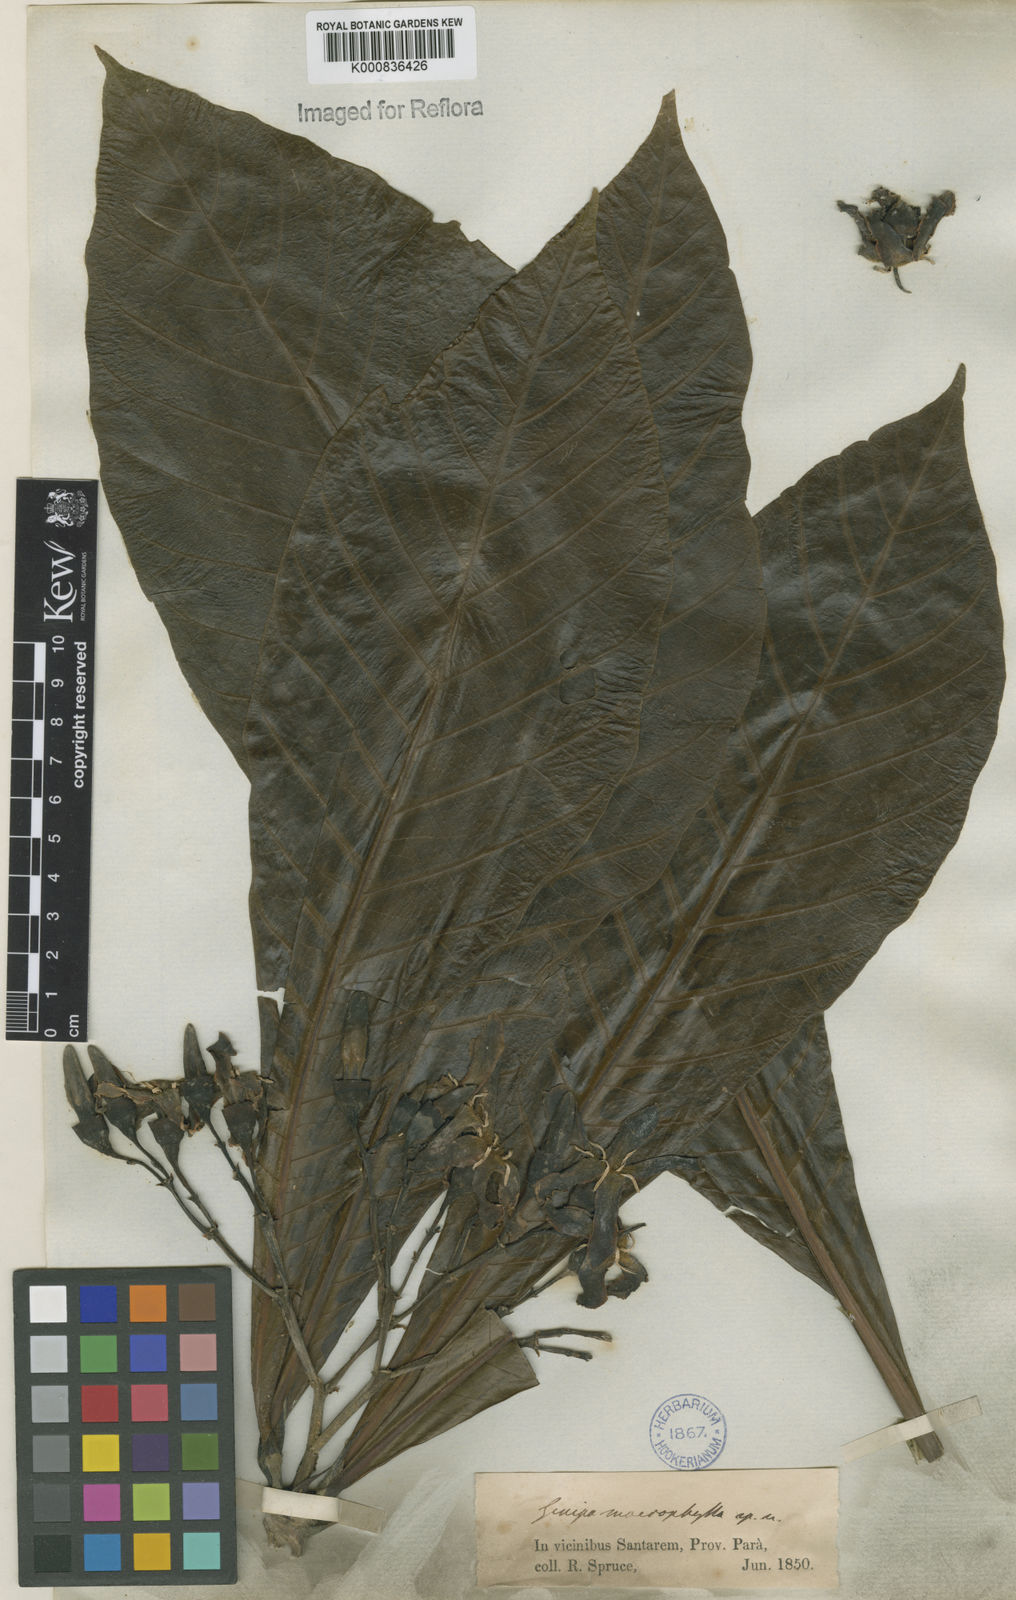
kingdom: Plantae
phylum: Tracheophyta
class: Magnoliopsida
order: Gentianales
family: Rubiaceae
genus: Genipa
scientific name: Genipa americana
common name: Genipap
